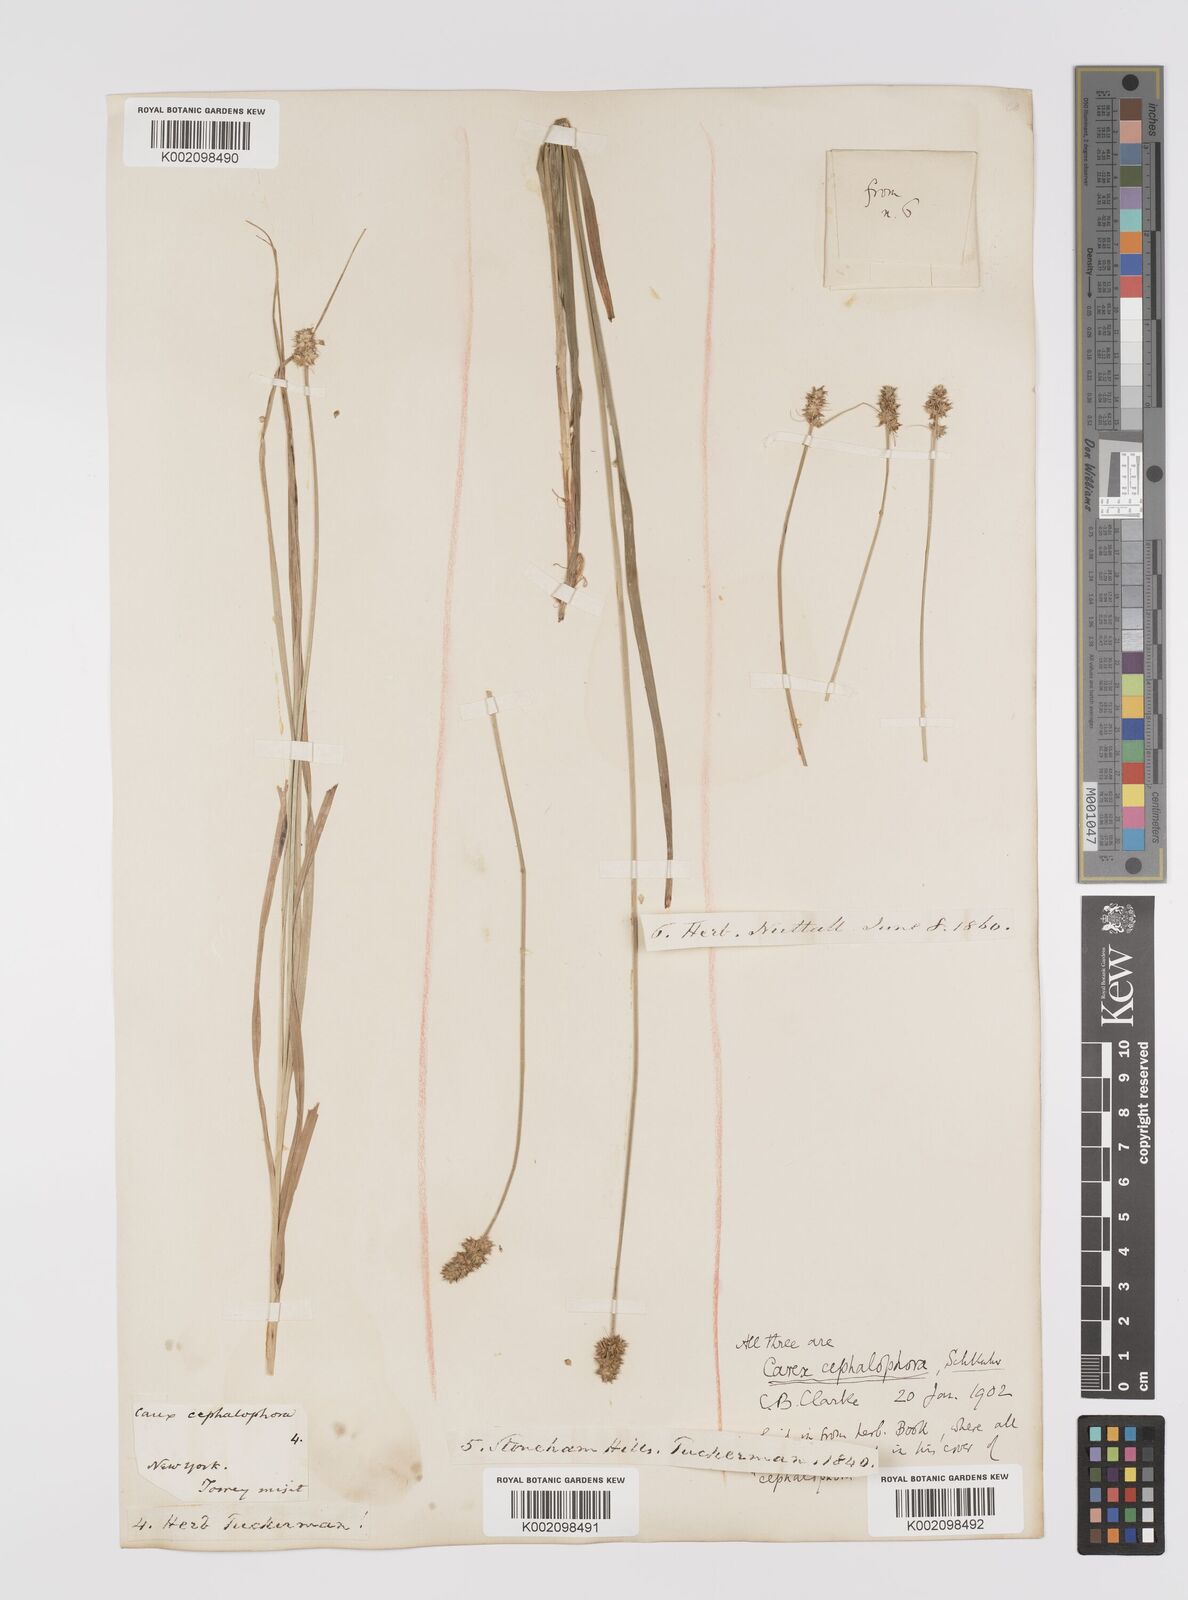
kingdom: Plantae
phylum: Tracheophyta
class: Liliopsida
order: Poales
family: Cyperaceae
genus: Carex
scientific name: Carex cephalophora
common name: Oval-headed sedge
